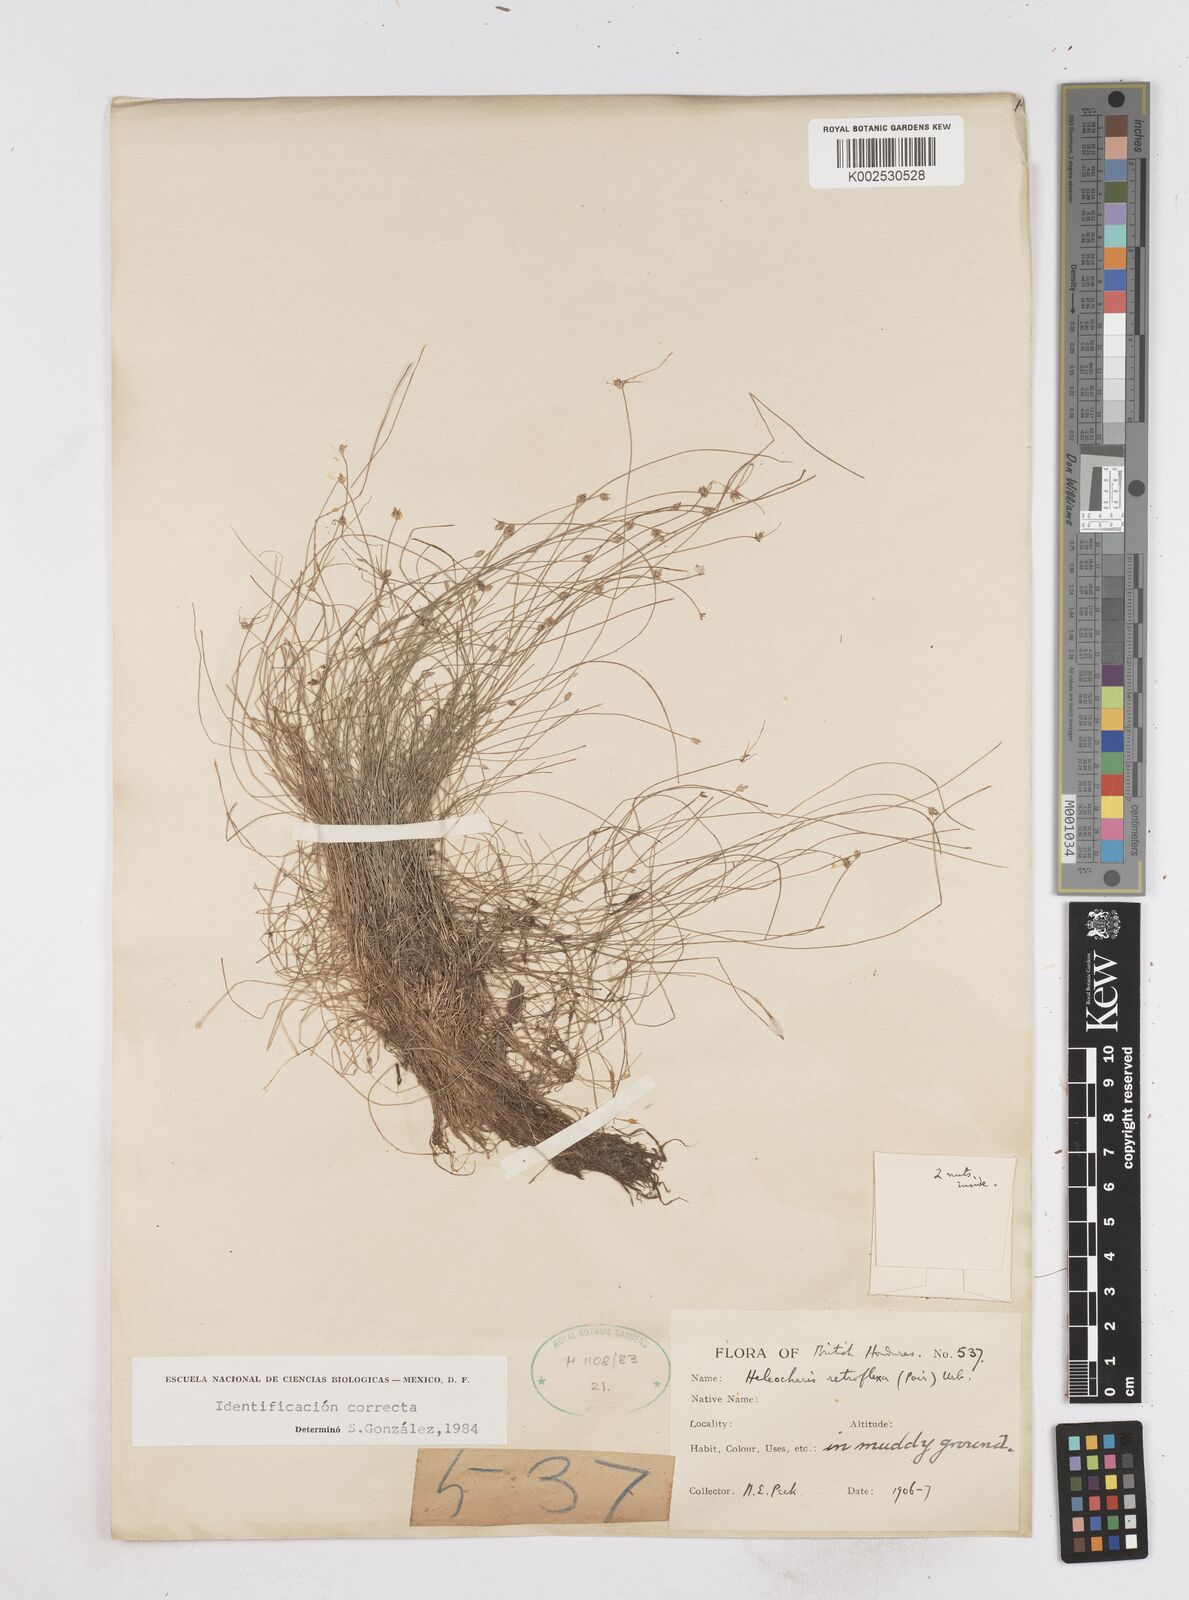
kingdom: Plantae
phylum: Tracheophyta
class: Liliopsida
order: Poales
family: Cyperaceae
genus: Eleocharis
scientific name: Eleocharis retroflexa
